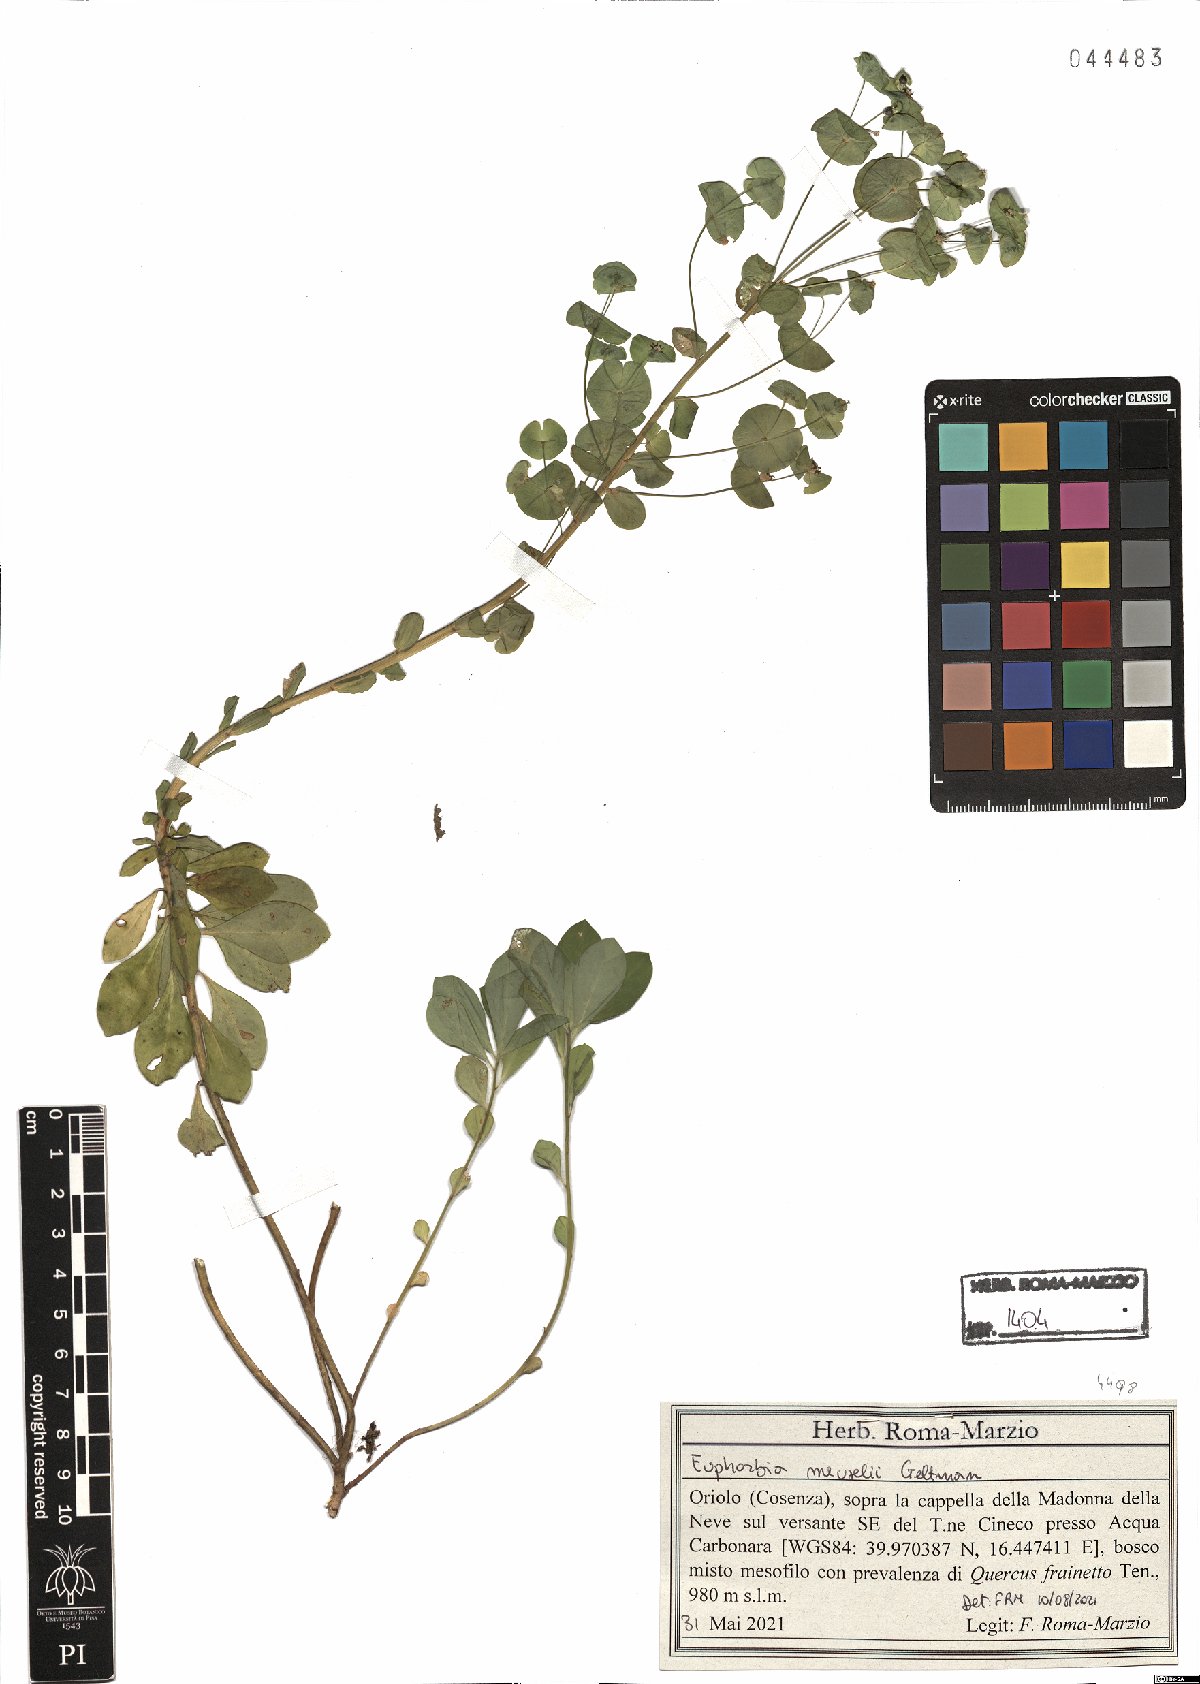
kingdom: Plantae
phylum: Tracheophyta
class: Magnoliopsida
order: Malpighiales
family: Euphorbiaceae
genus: Euphorbia
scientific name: Euphorbia meuselii
